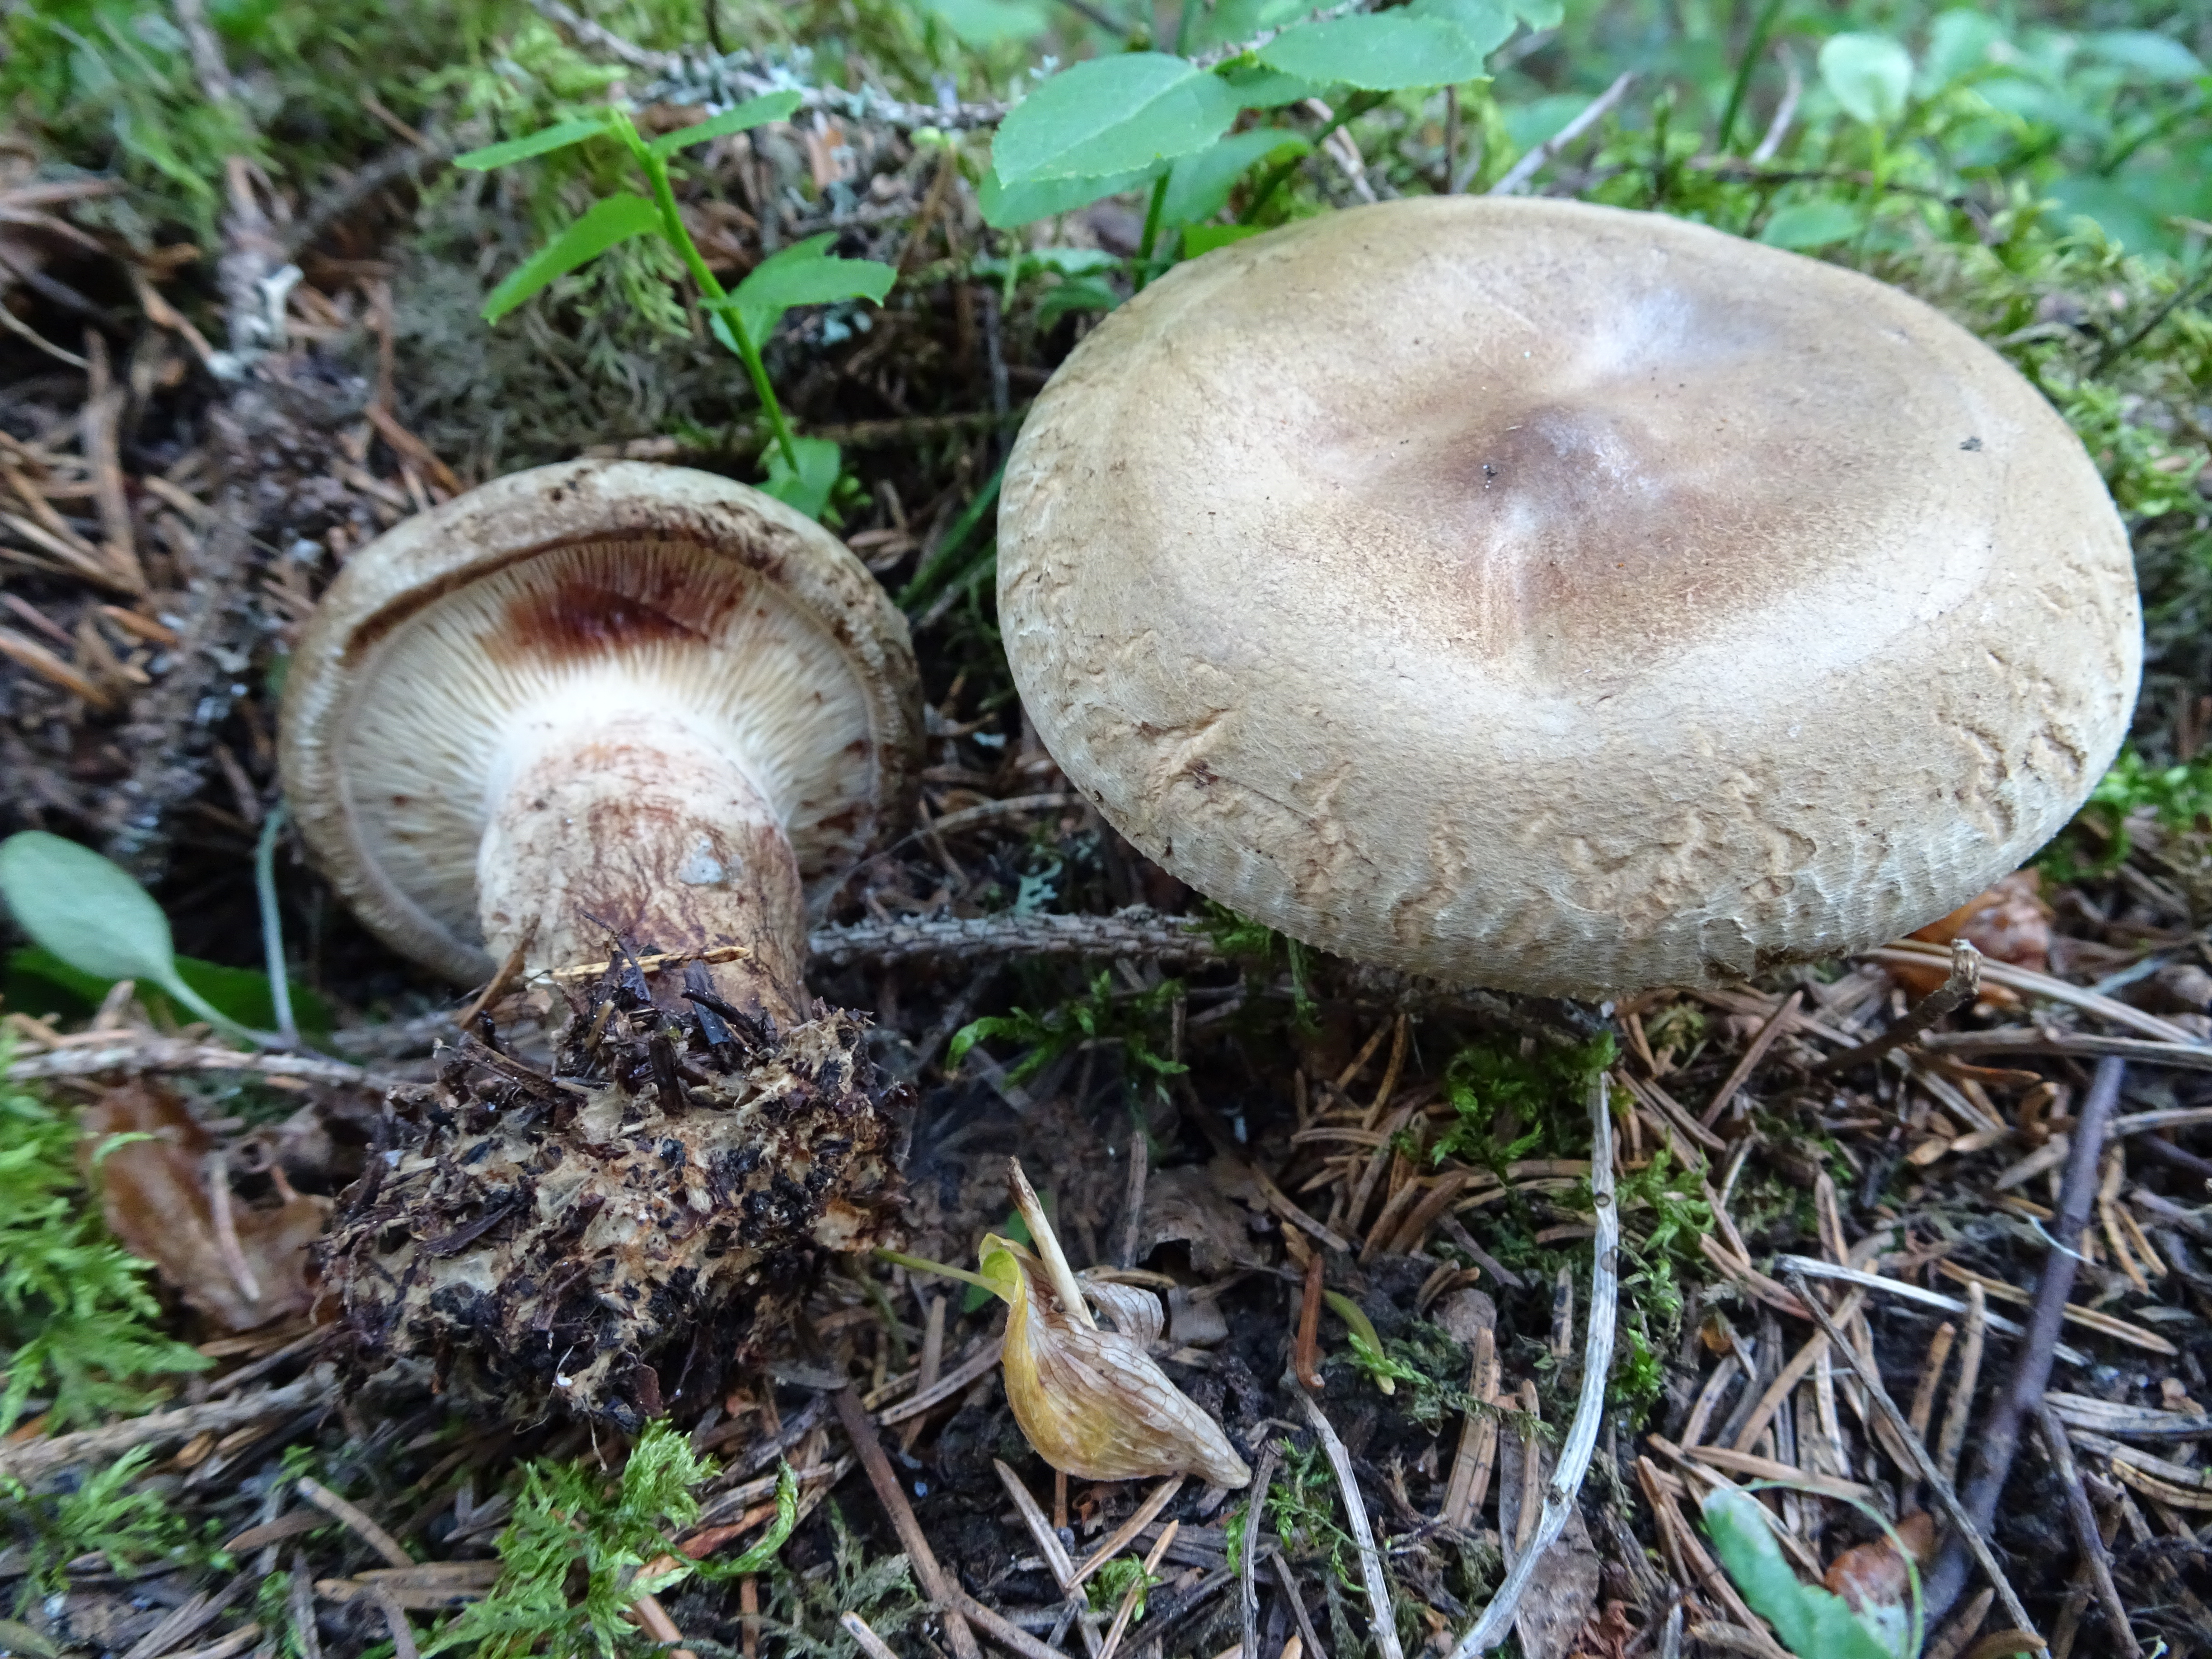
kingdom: Fungi
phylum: Basidiomycota
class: Agaricomycetes
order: Boletales
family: Paxillaceae
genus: Paxillus
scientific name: Paxillus involutus
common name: Brown roll rim
